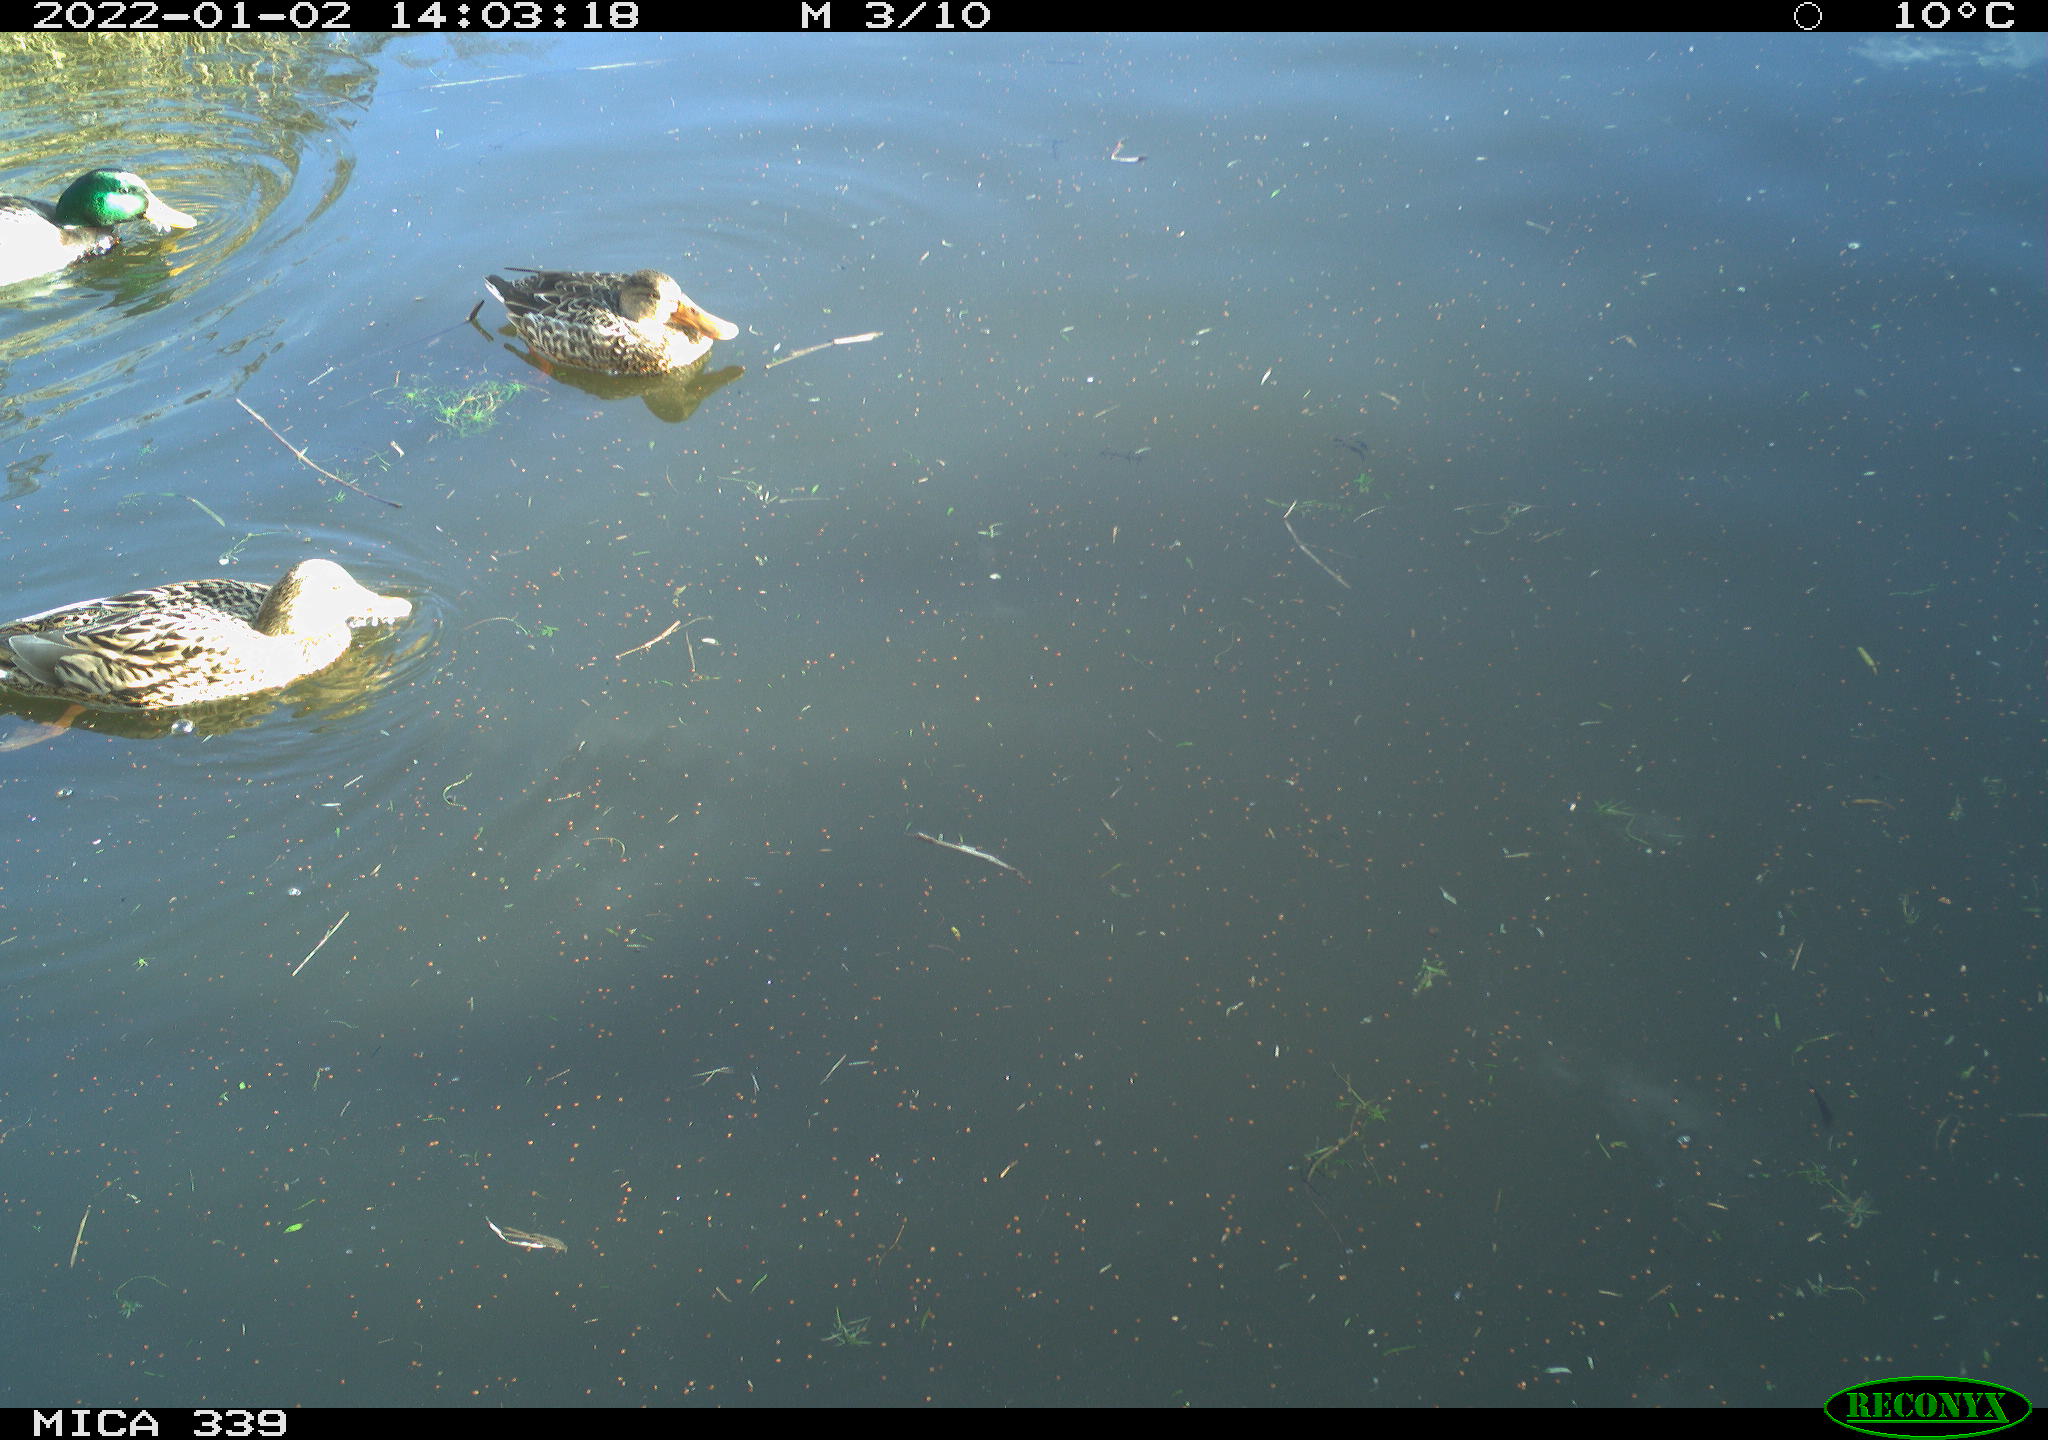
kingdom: Animalia
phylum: Chordata
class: Aves
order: Anseriformes
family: Anatidae
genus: Anas
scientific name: Anas platyrhynchos
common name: Mallard
